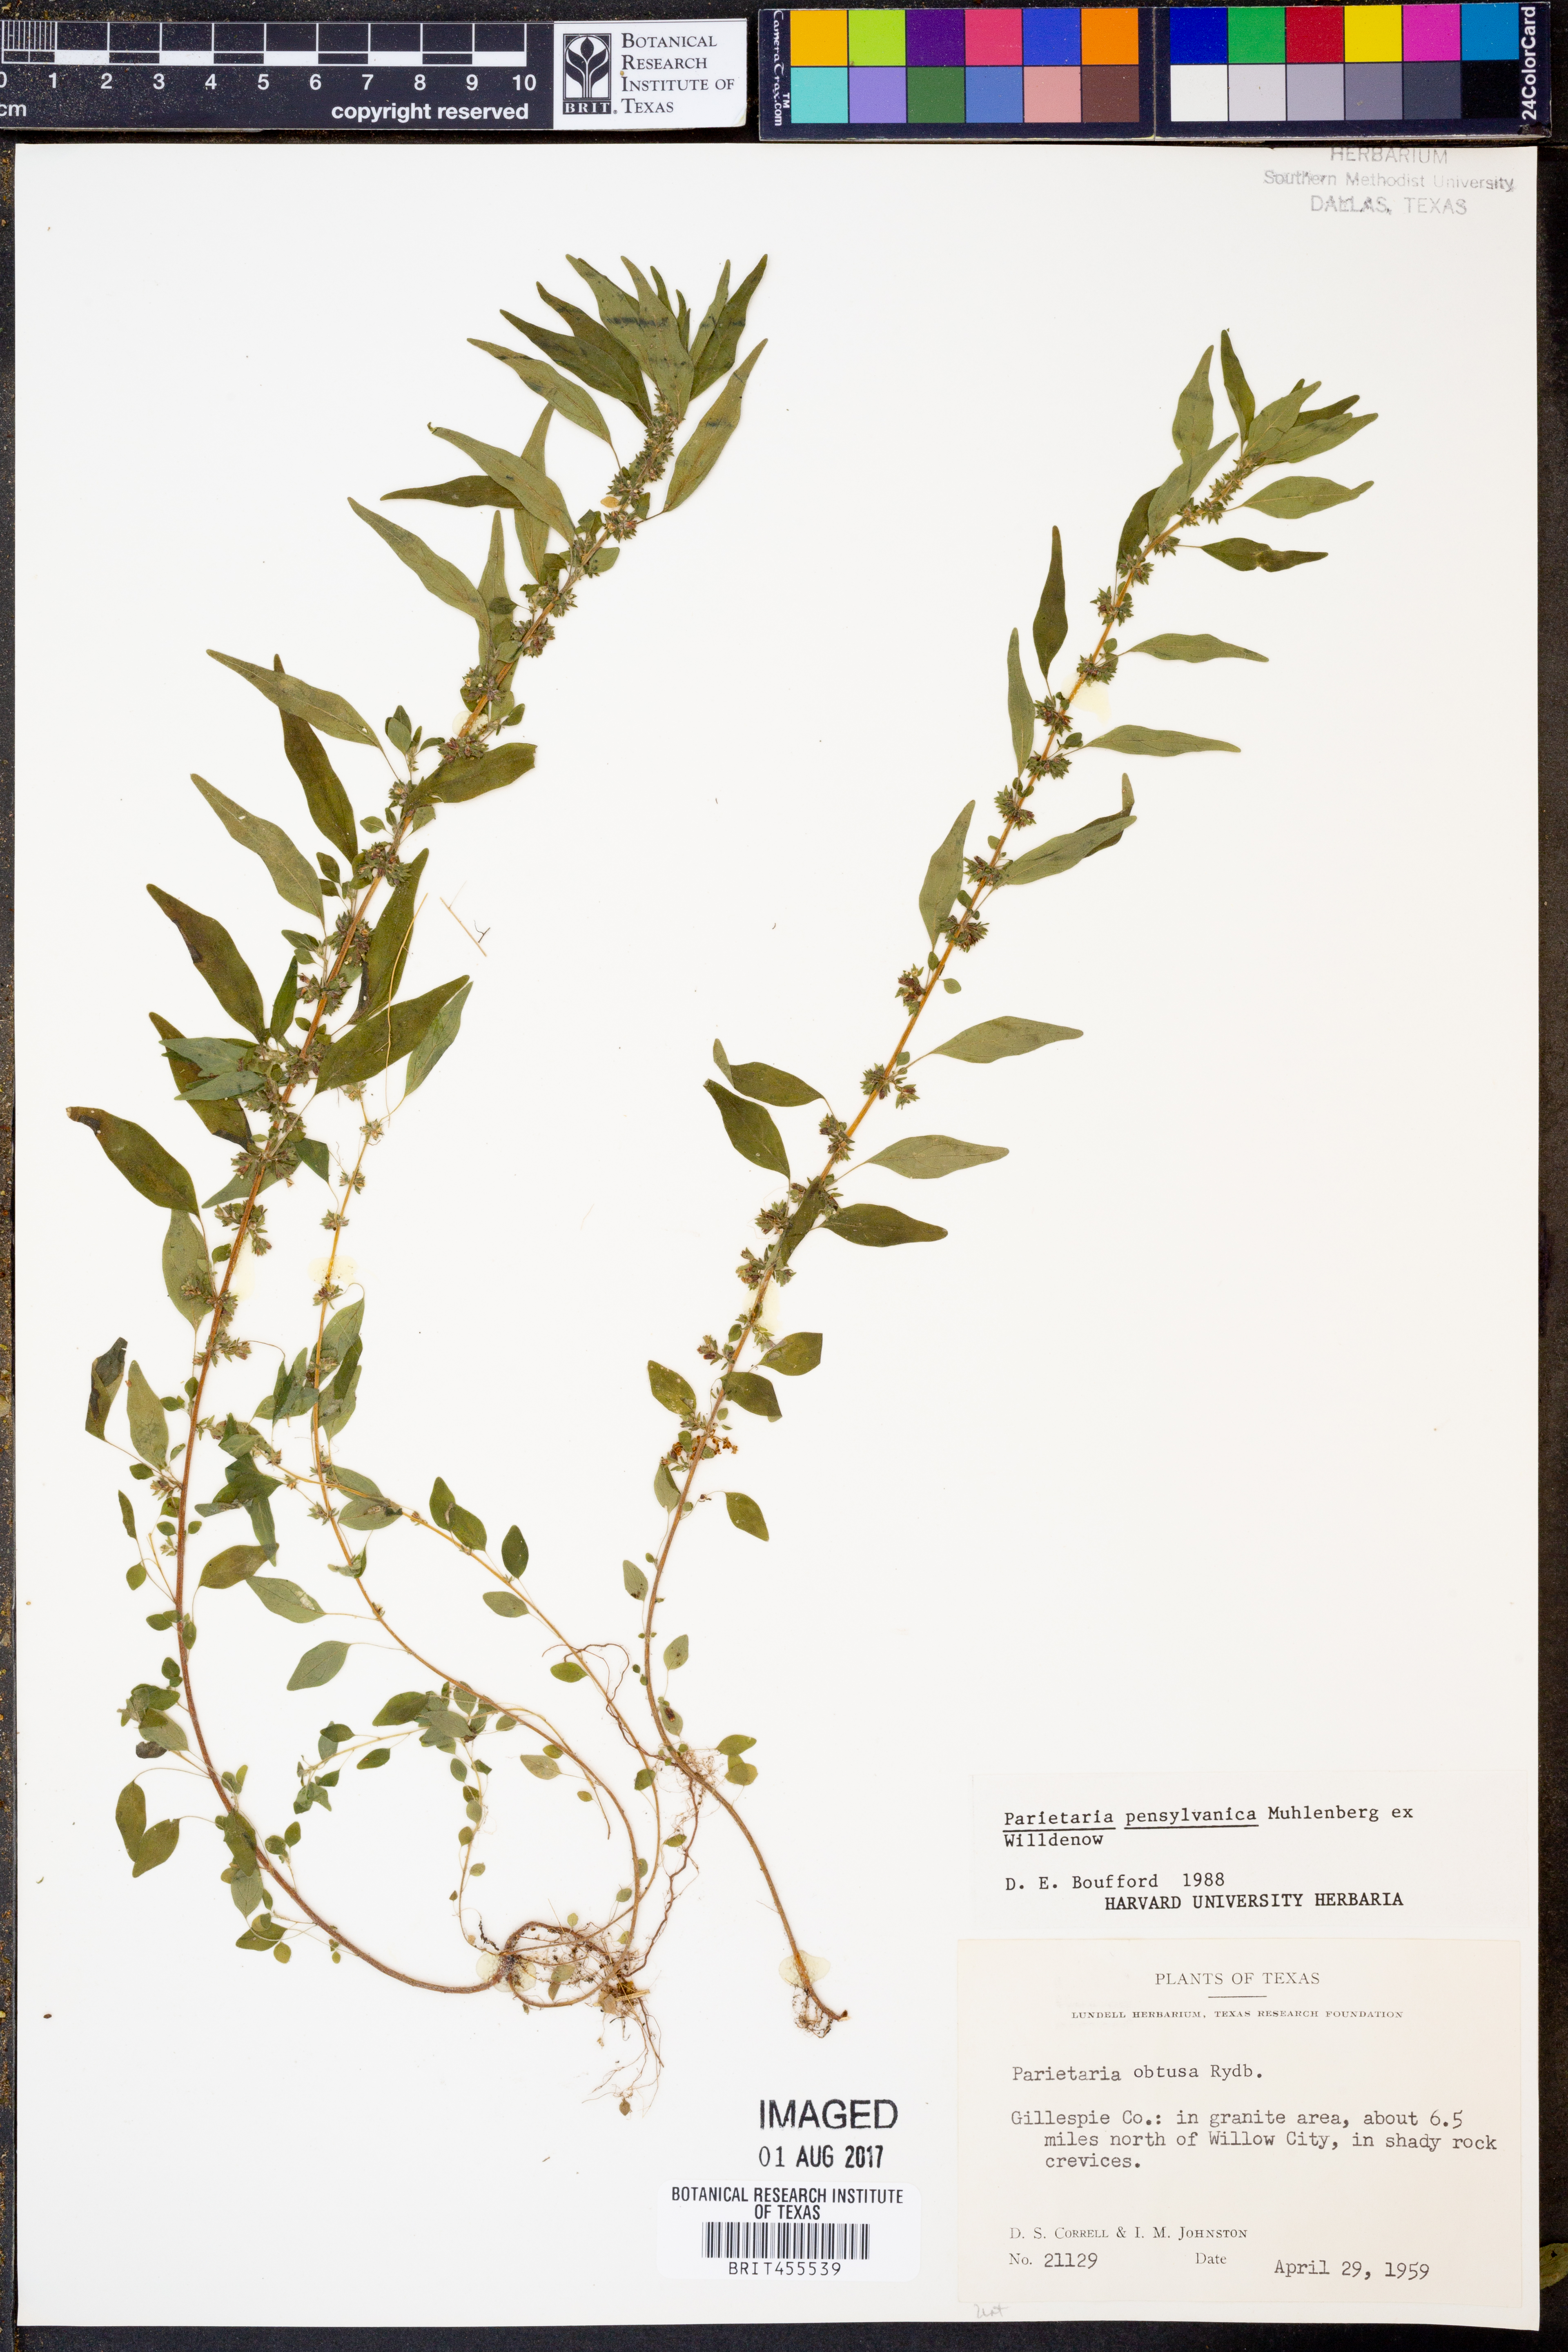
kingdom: Plantae
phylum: Tracheophyta
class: Magnoliopsida
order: Rosales
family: Urticaceae
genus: Parietaria
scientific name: Parietaria pensylvanica
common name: Pennsylvania pellitory
